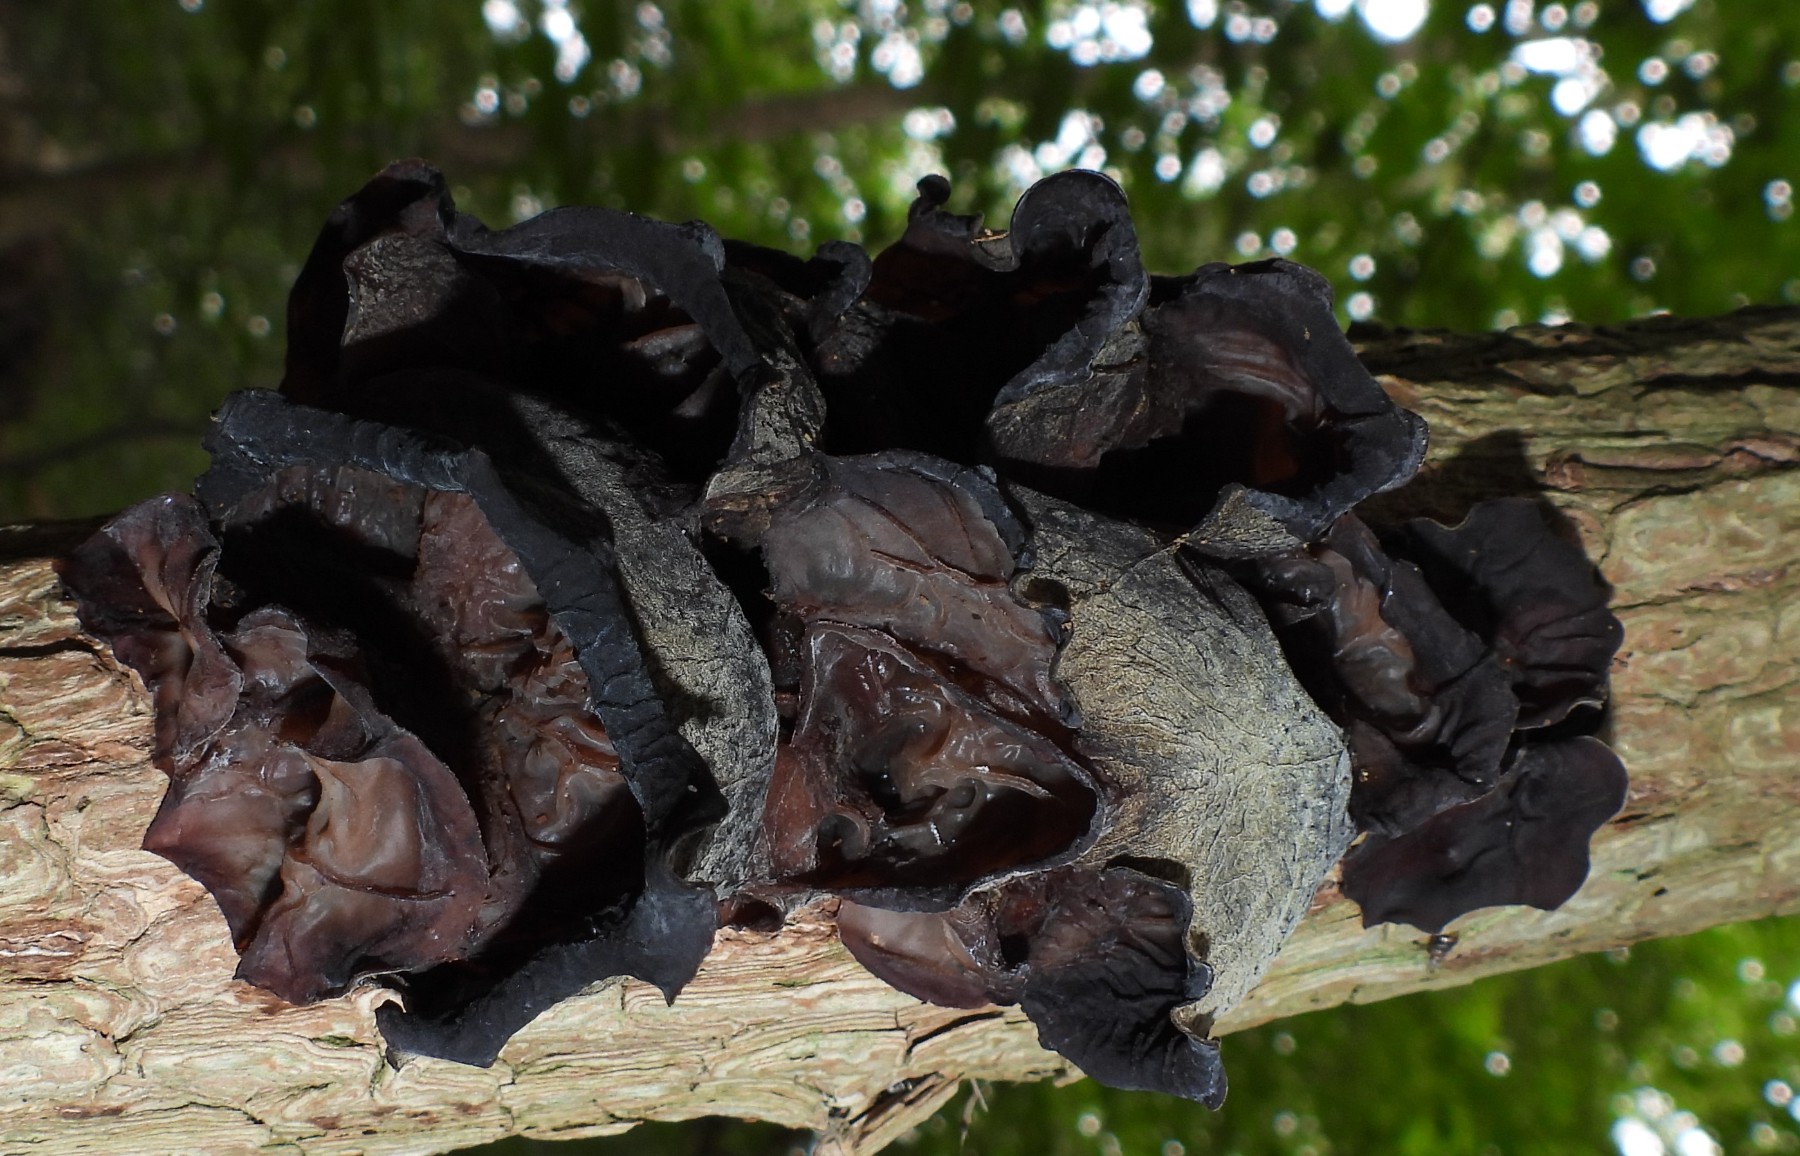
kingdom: Fungi
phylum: Basidiomycota
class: Agaricomycetes
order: Auriculariales
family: Auriculariaceae
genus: Auricularia
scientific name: Auricularia auricula-judae
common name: almindelig judasøre
